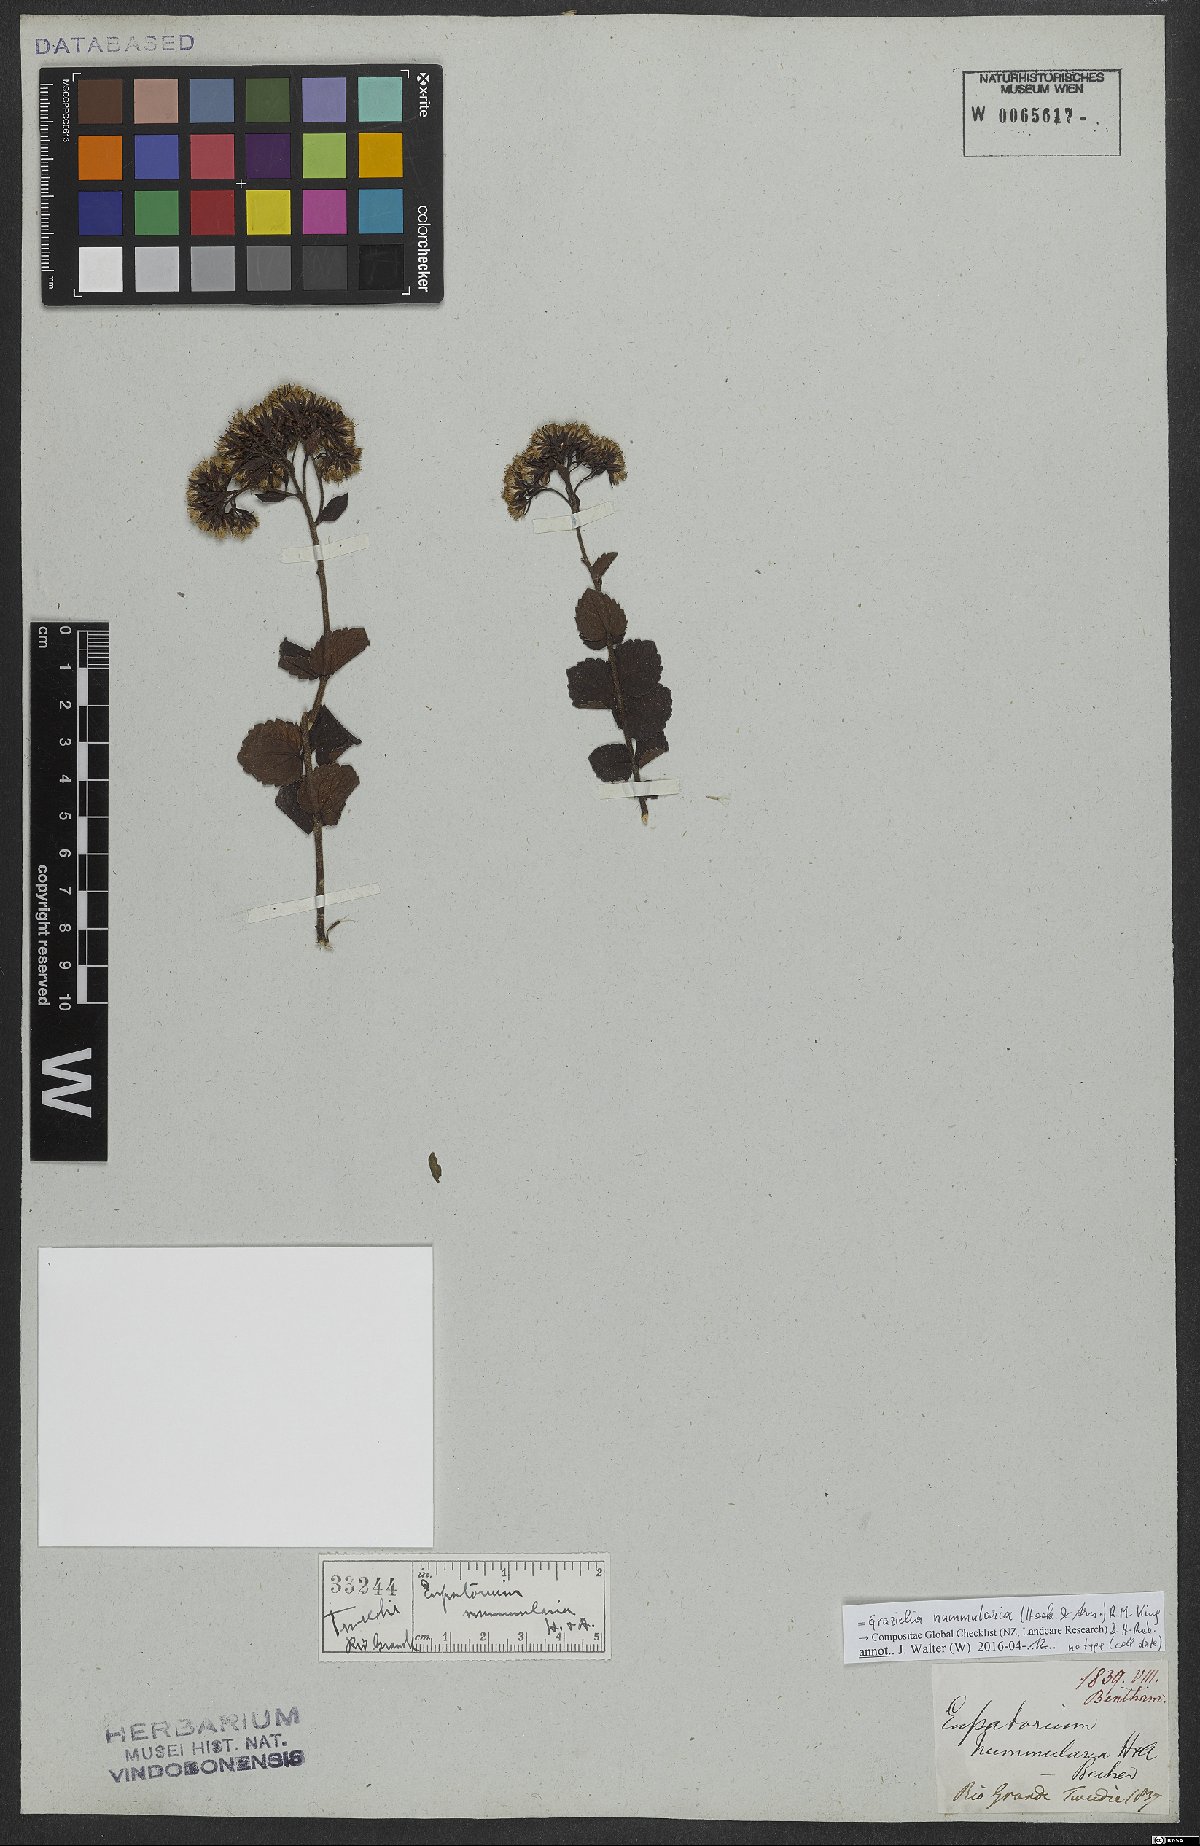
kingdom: Plantae
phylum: Tracheophyta
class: Magnoliopsida
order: Asterales
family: Asteraceae
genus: Grazielia
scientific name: Grazielia nummularia
